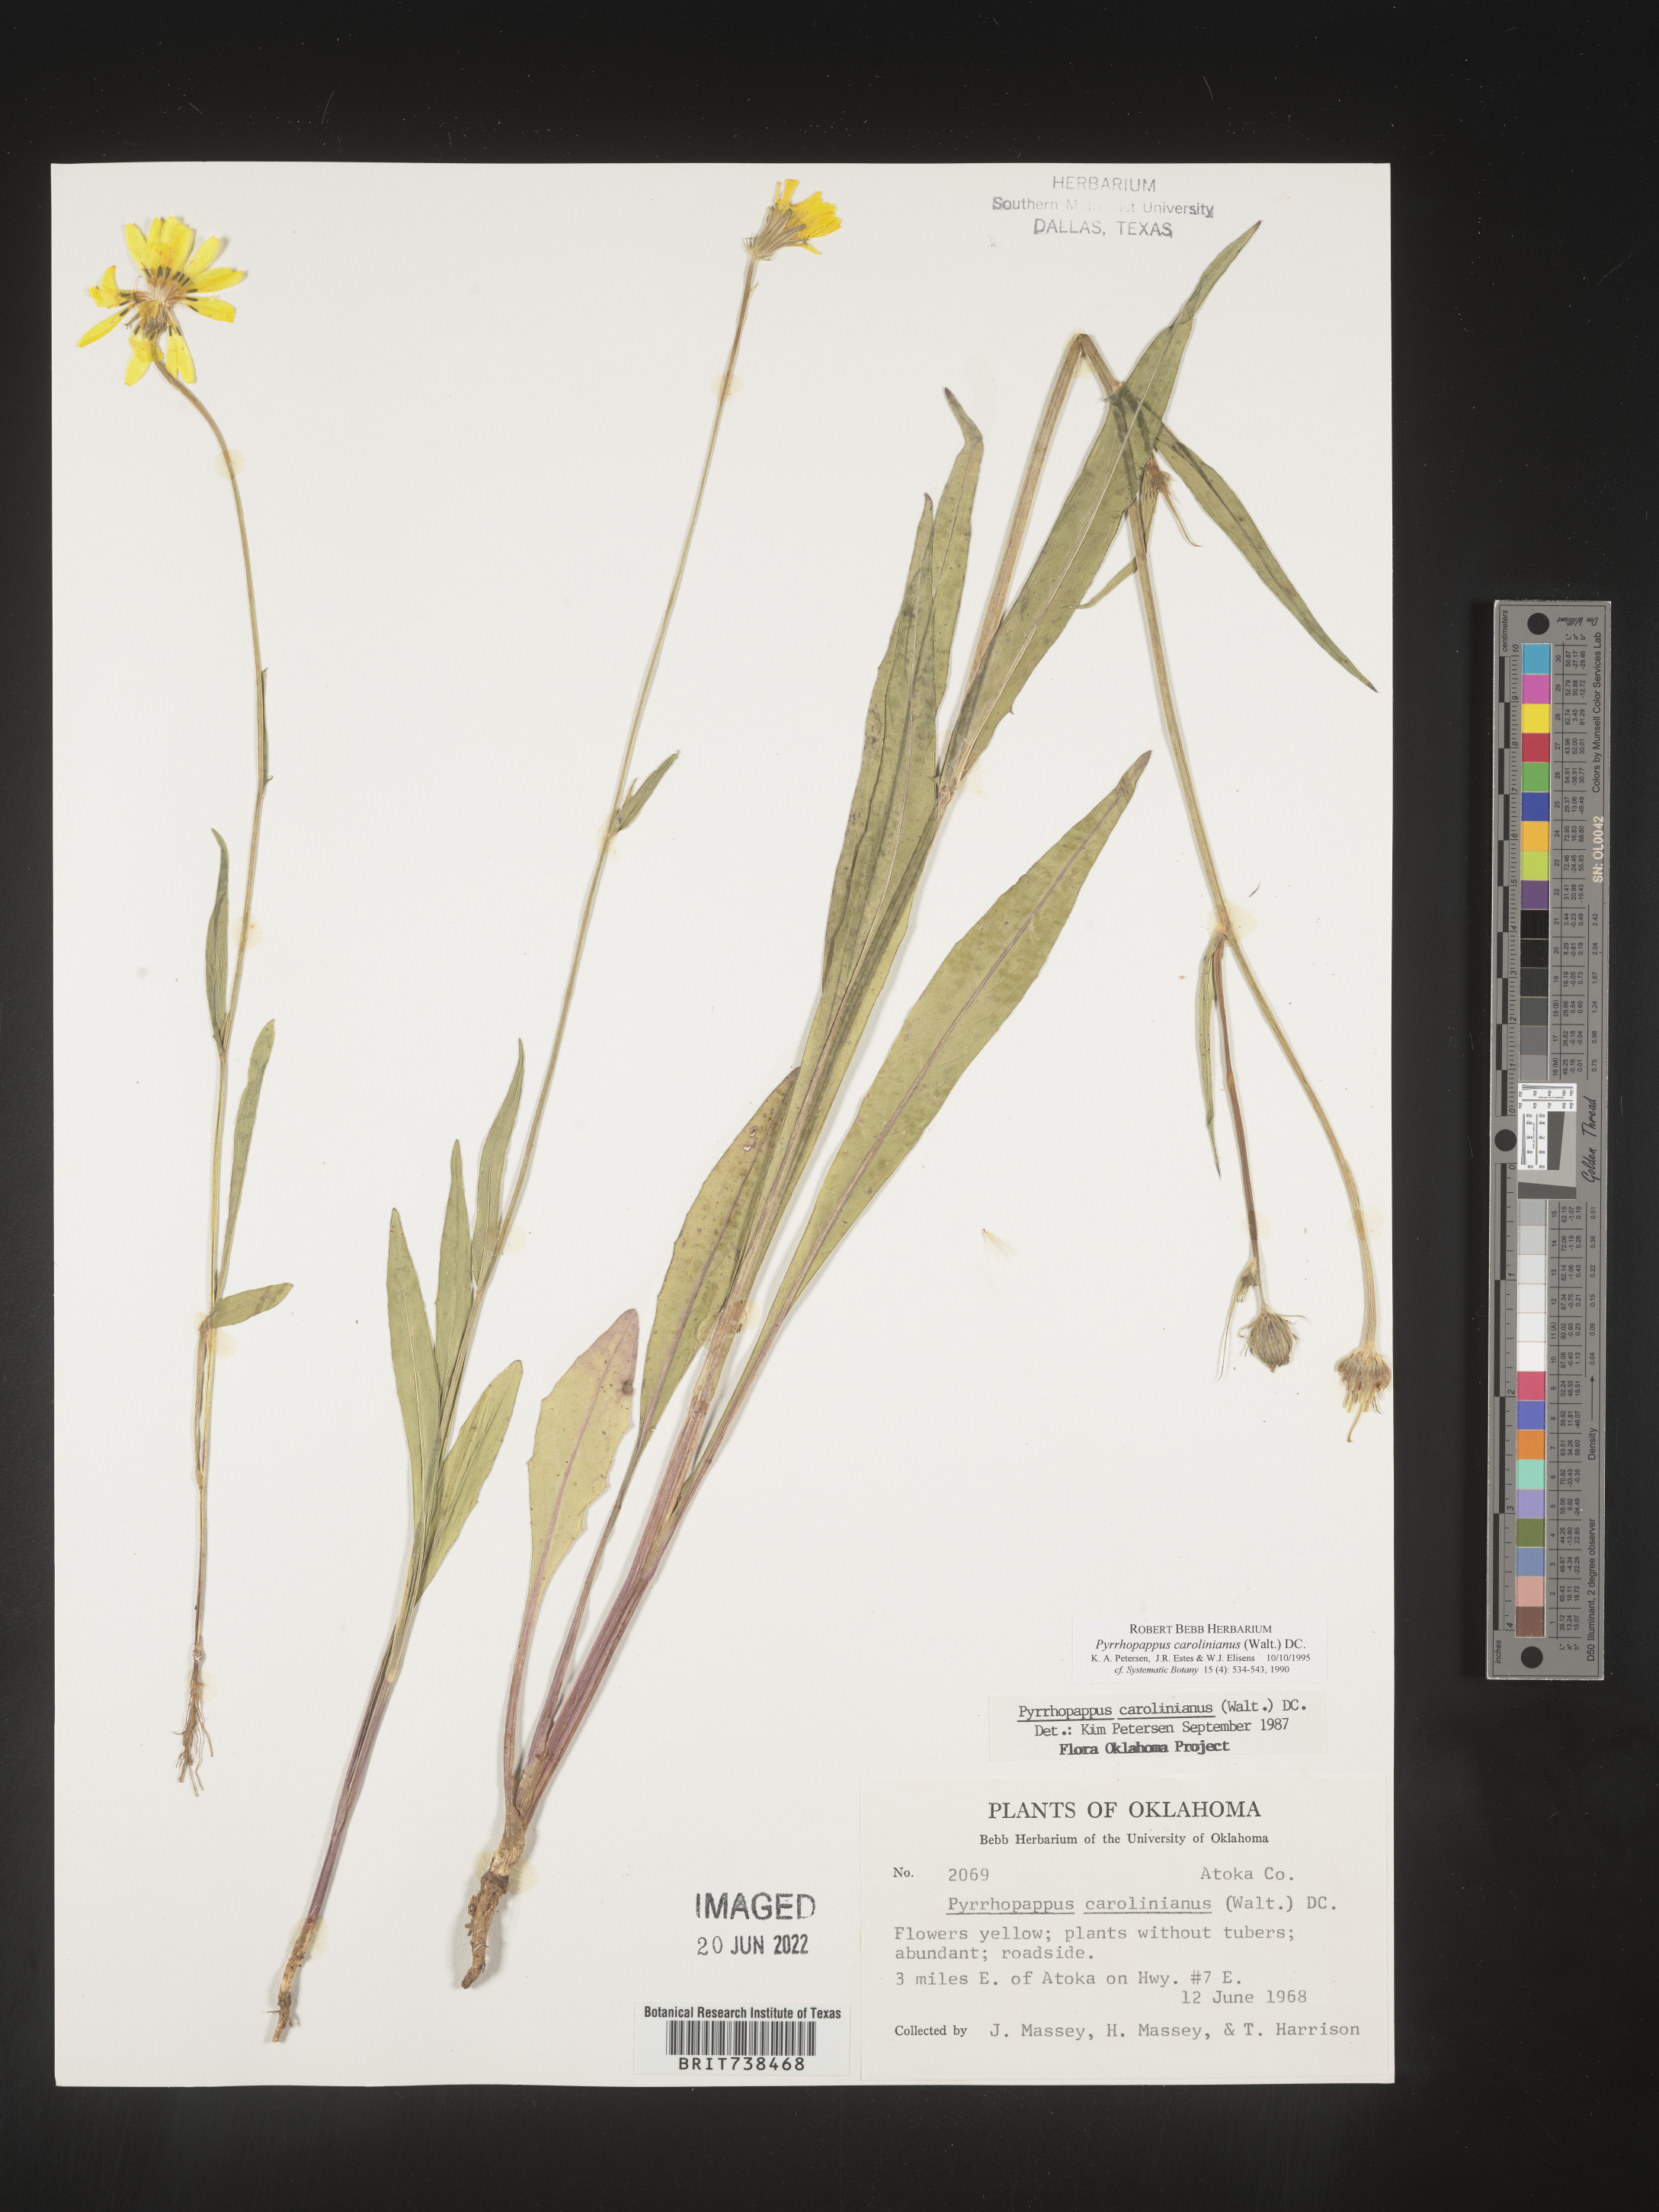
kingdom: Plantae
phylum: Tracheophyta
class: Magnoliopsida
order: Asterales
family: Asteraceae
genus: Pyrrhopappus
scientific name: Pyrrhopappus carolinianus
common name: Carolina desert-chicory
